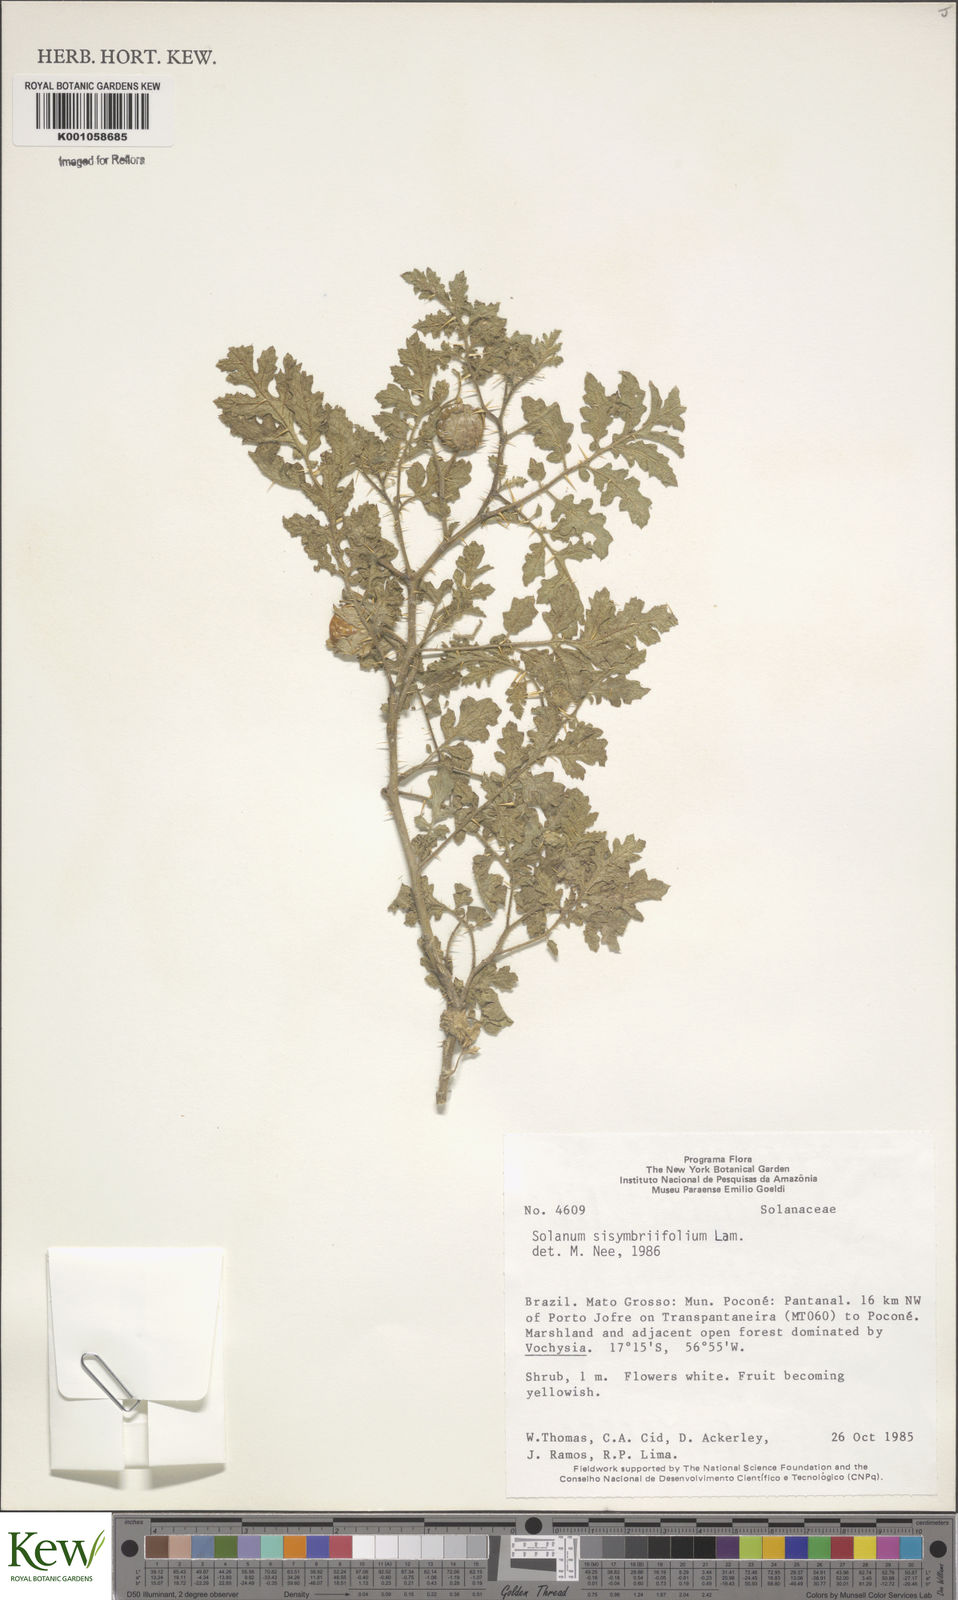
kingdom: Plantae
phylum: Tracheophyta
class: Magnoliopsida
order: Solanales
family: Solanaceae
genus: Solanum
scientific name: Solanum sisymbriifolium
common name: Red buffalo-bur
